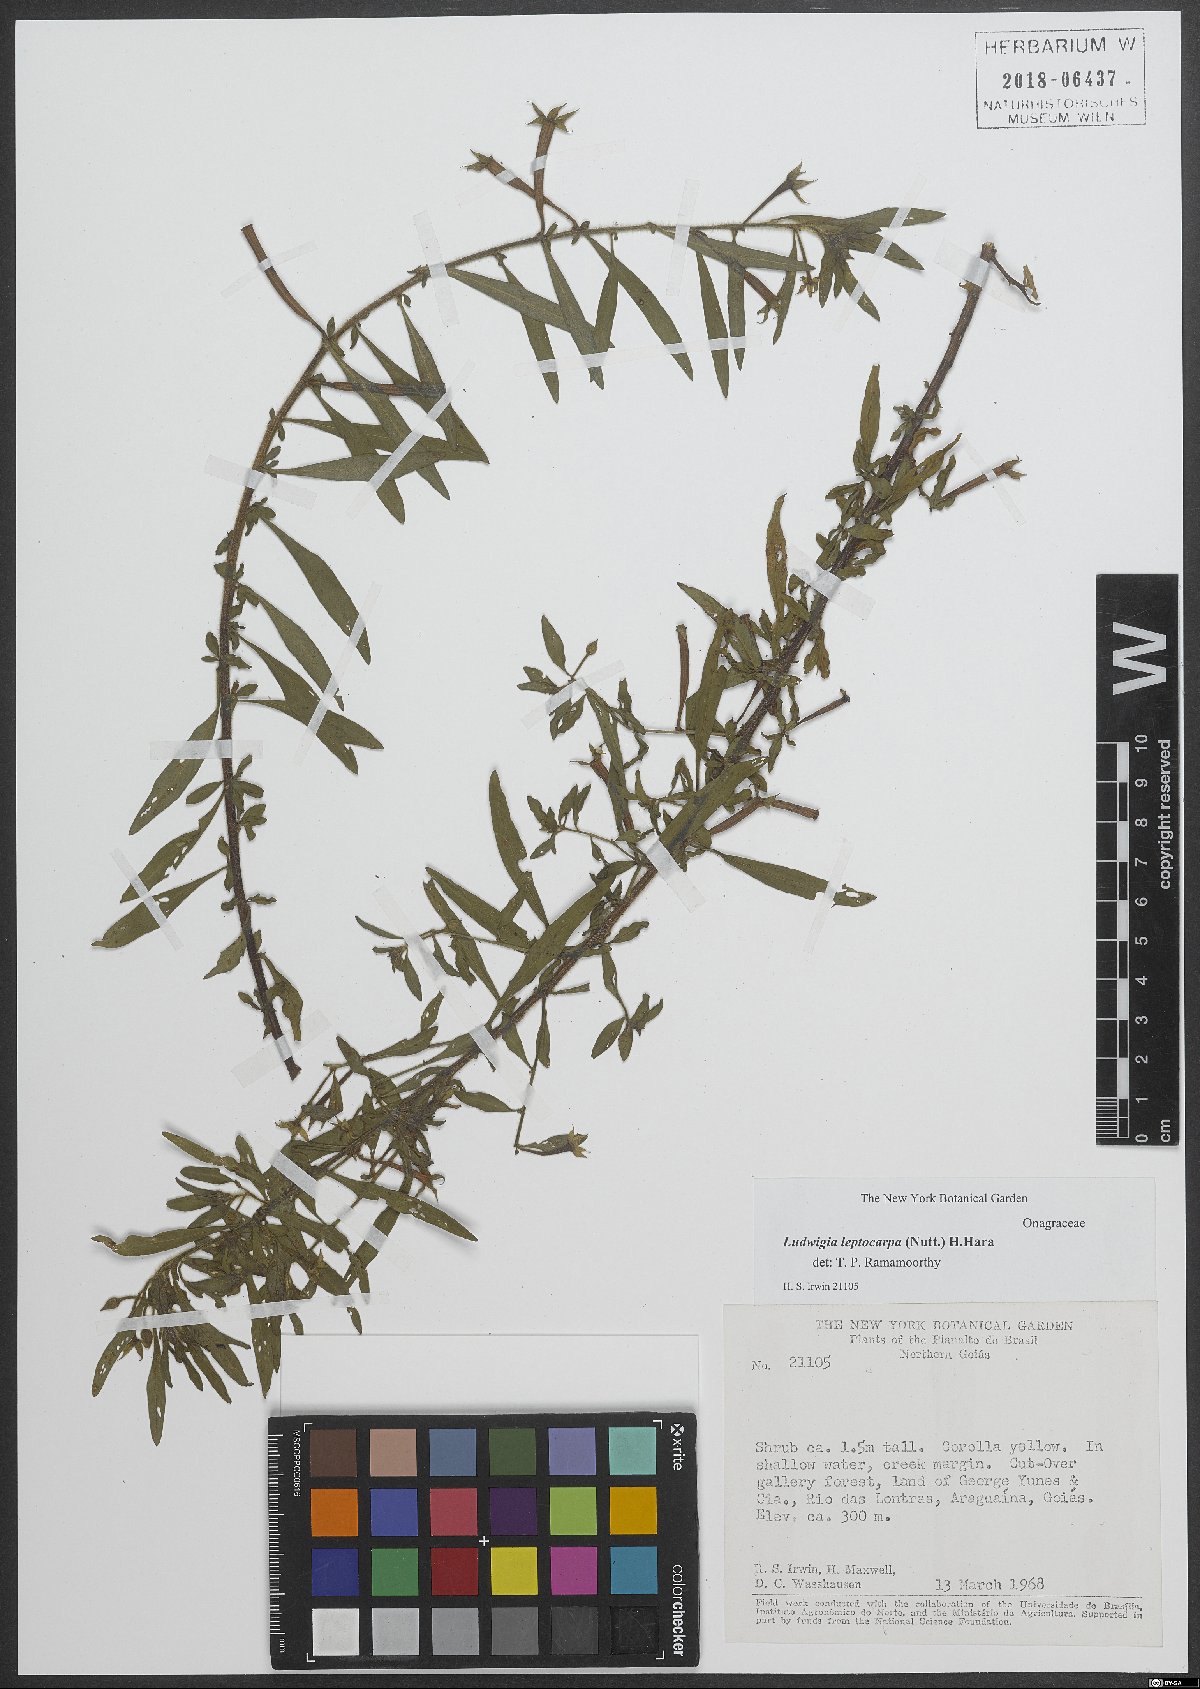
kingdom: Plantae
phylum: Tracheophyta
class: Magnoliopsida
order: Myrtales
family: Onagraceae
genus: Ludwigia
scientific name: Ludwigia leptocarpa
